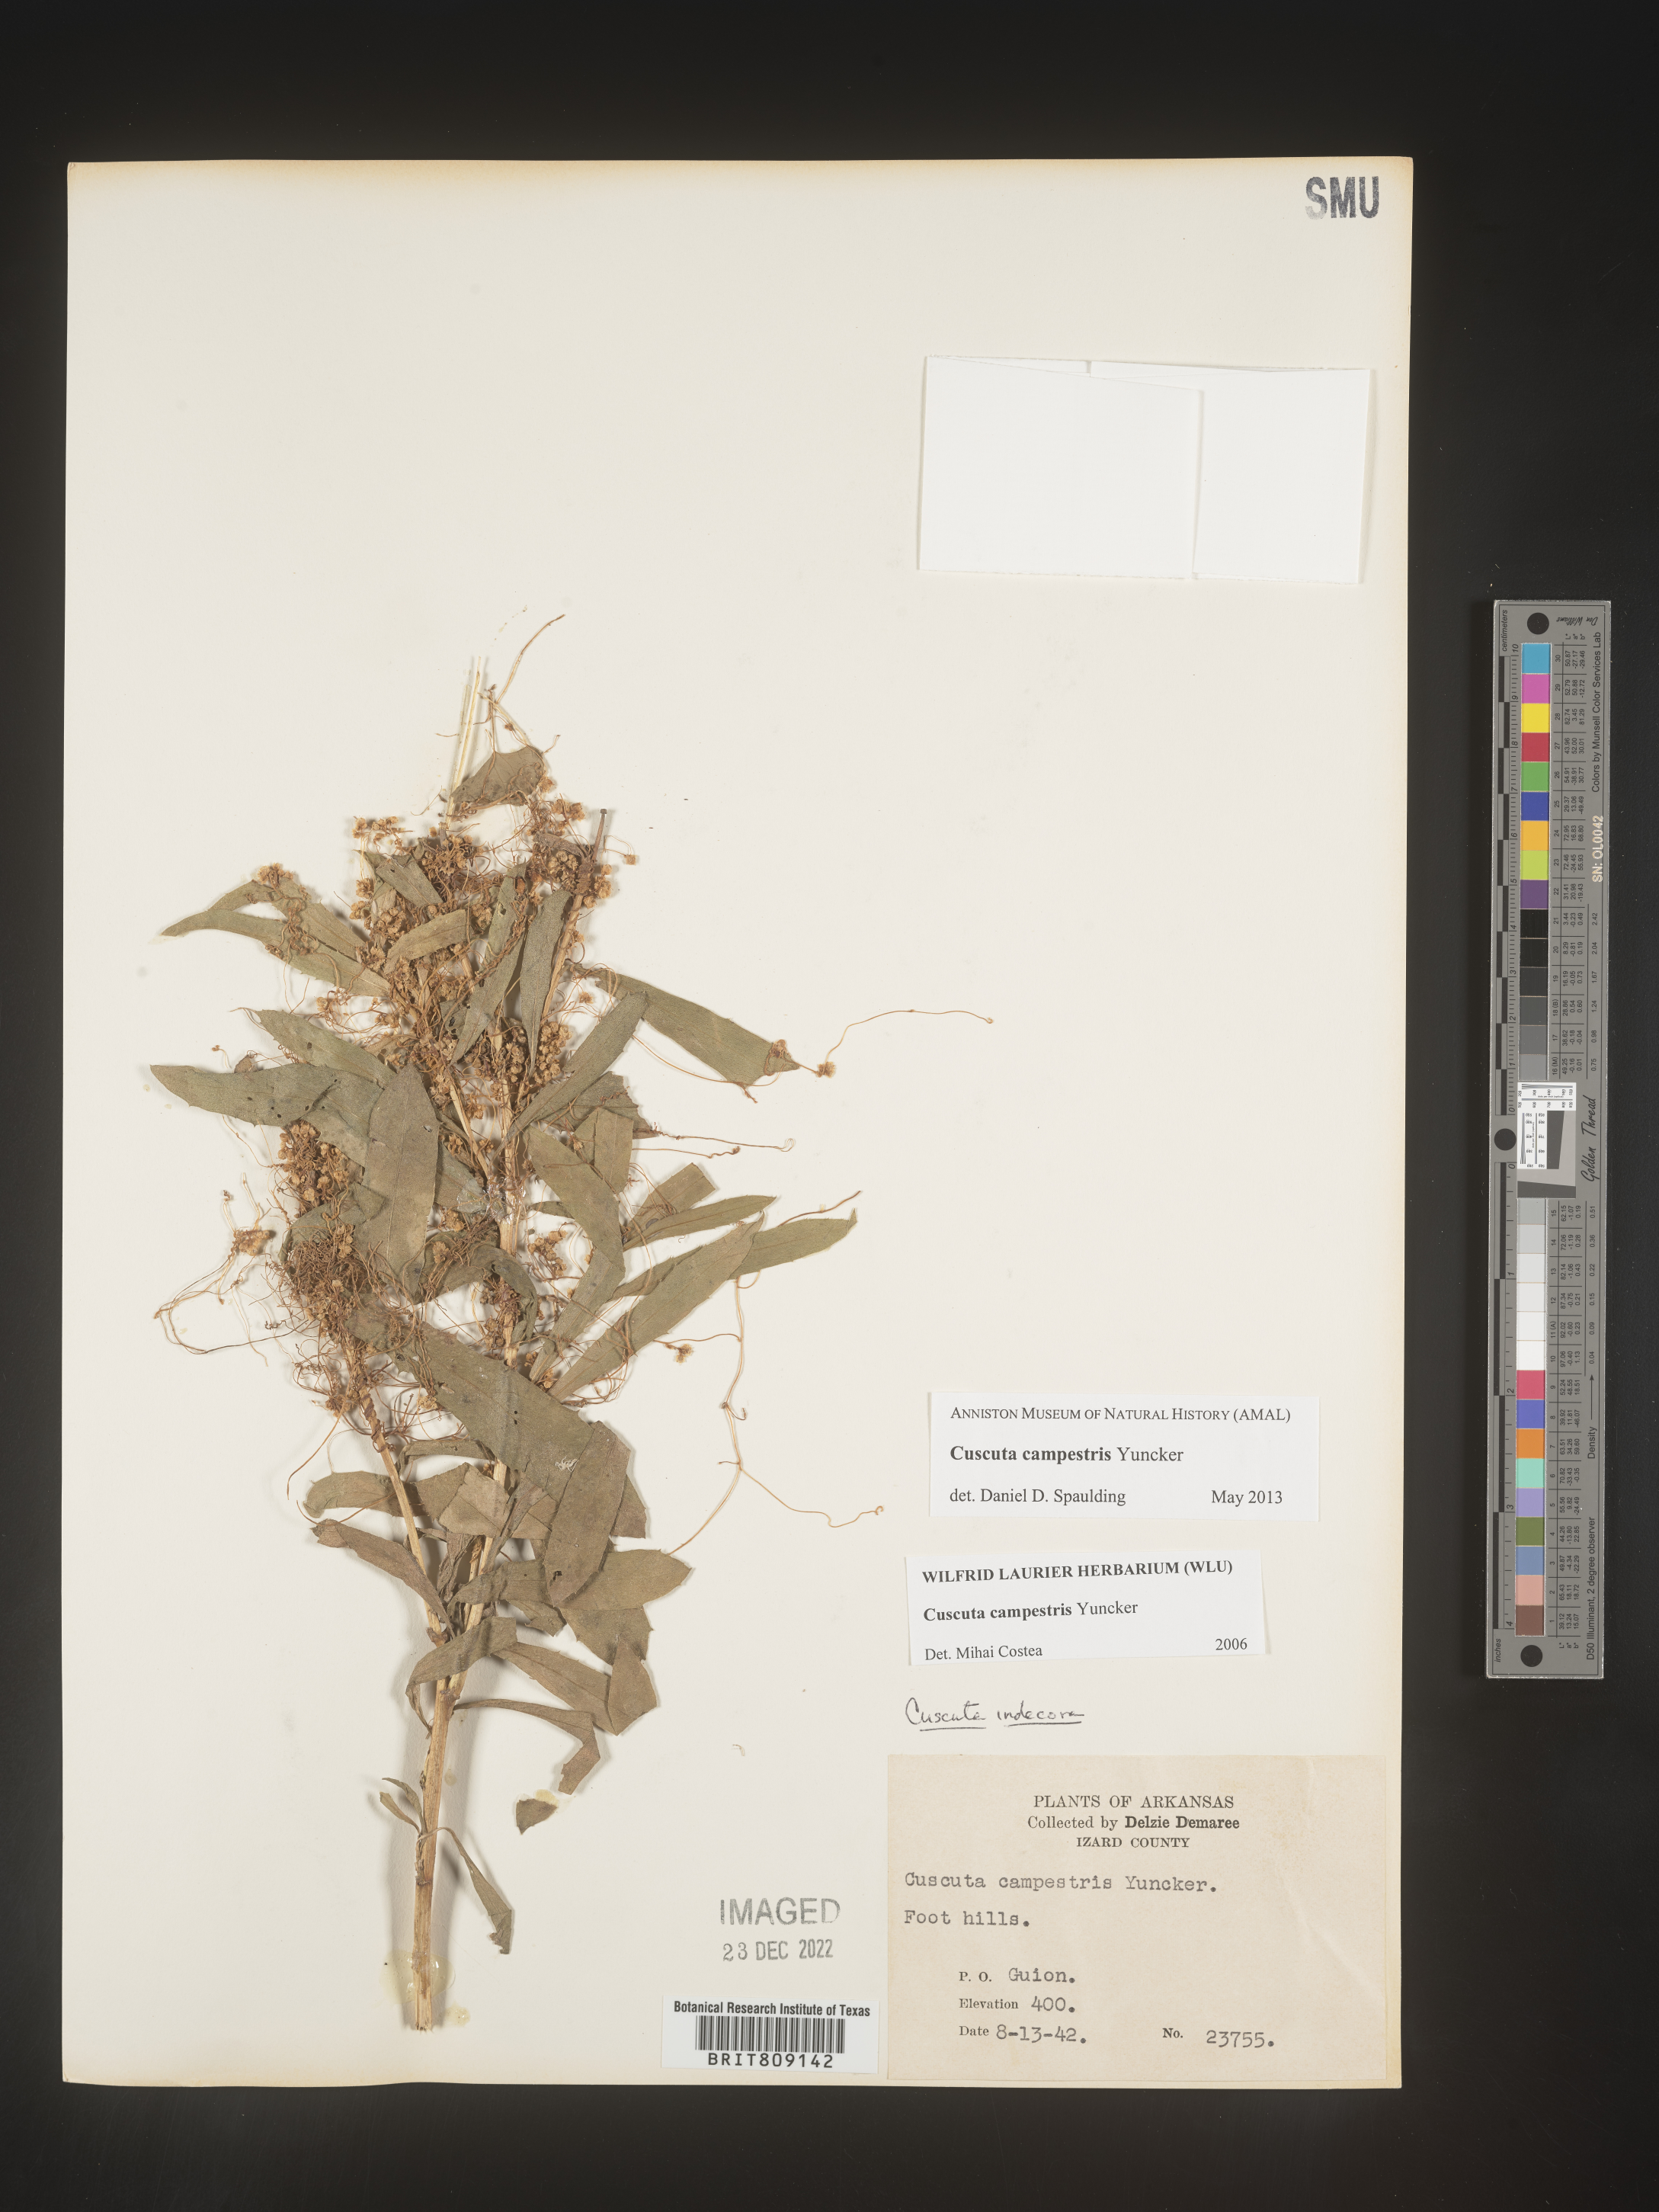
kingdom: Plantae
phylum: Tracheophyta
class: Magnoliopsida
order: Solanales
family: Convolvulaceae
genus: Cuscuta
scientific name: Cuscuta campestris
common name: Yellow dodder
